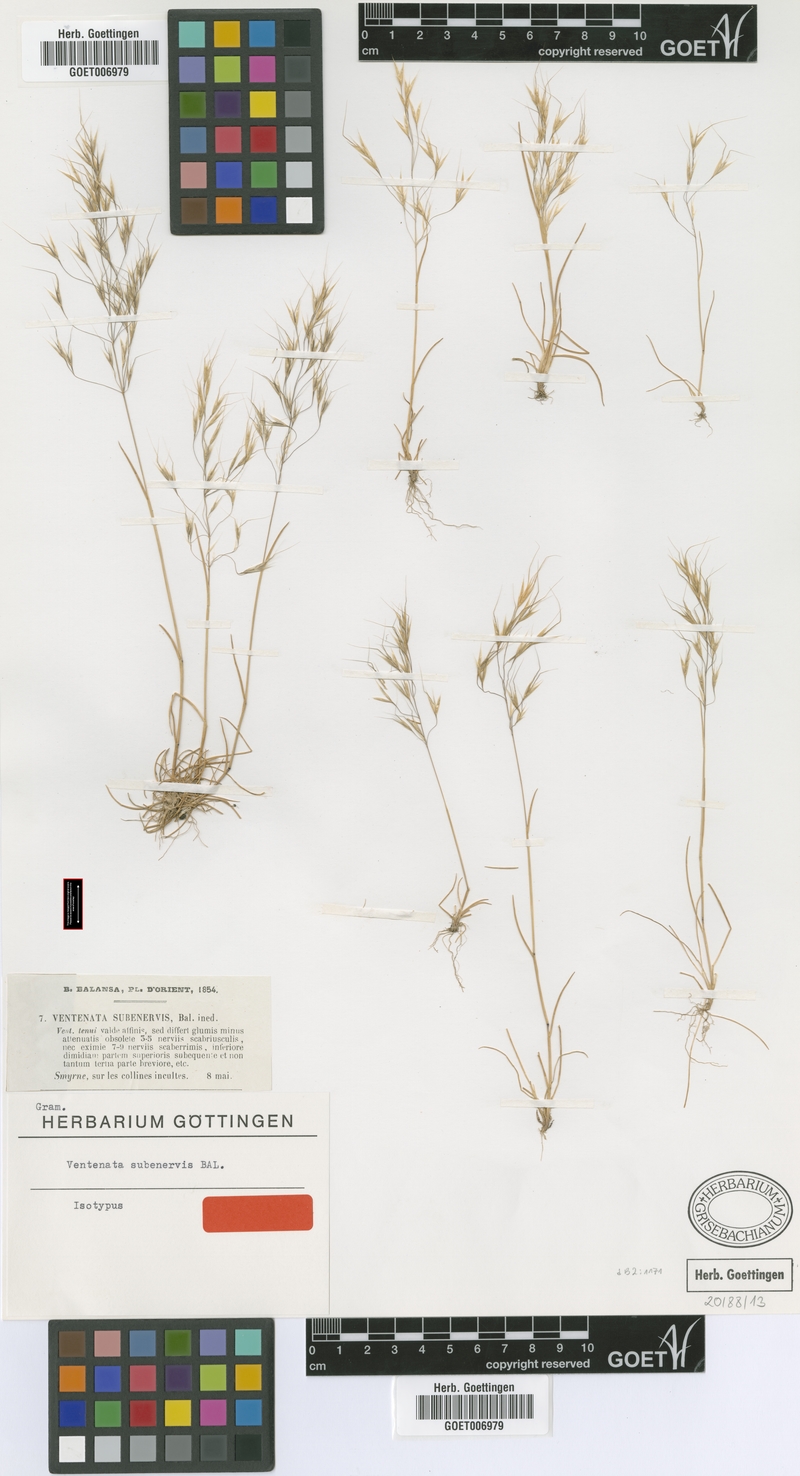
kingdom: Plantae
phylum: Tracheophyta
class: Liliopsida
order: Poales
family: Poaceae
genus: Ventenata
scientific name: Ventenata subenervis
